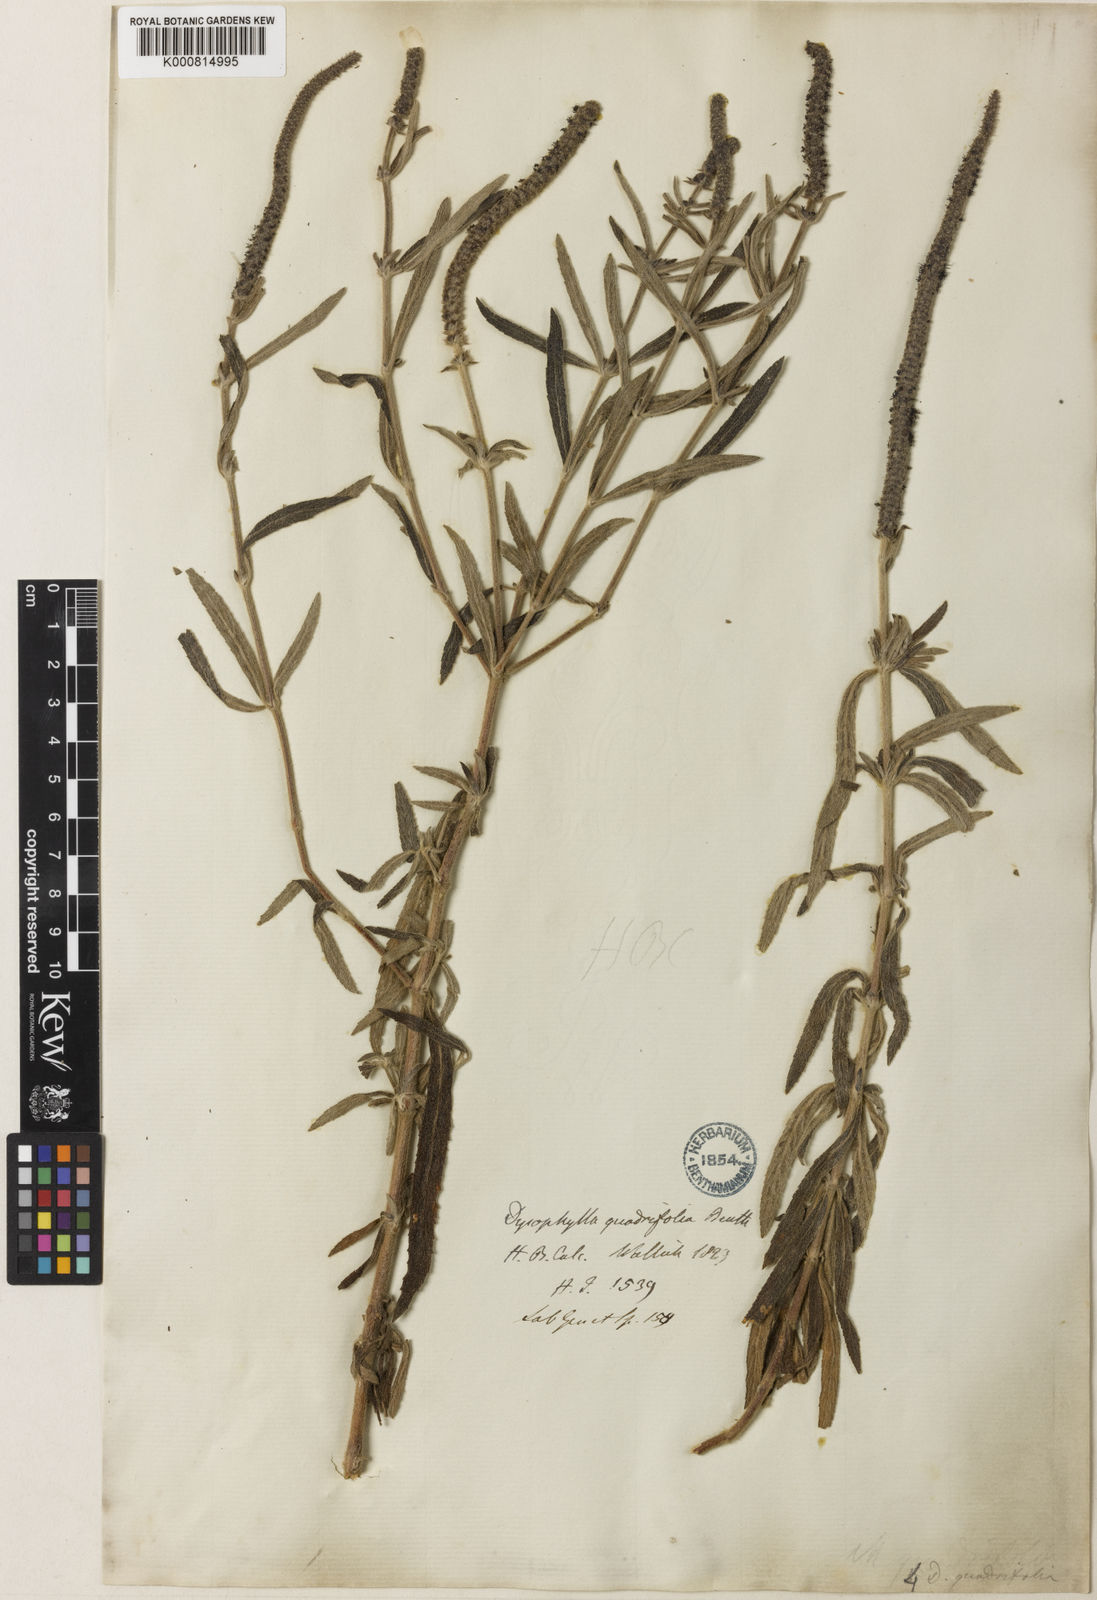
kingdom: Plantae
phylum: Tracheophyta
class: Magnoliopsida
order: Lamiales
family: Lamiaceae
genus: Pogostemon
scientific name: Pogostemon quadrifolius
